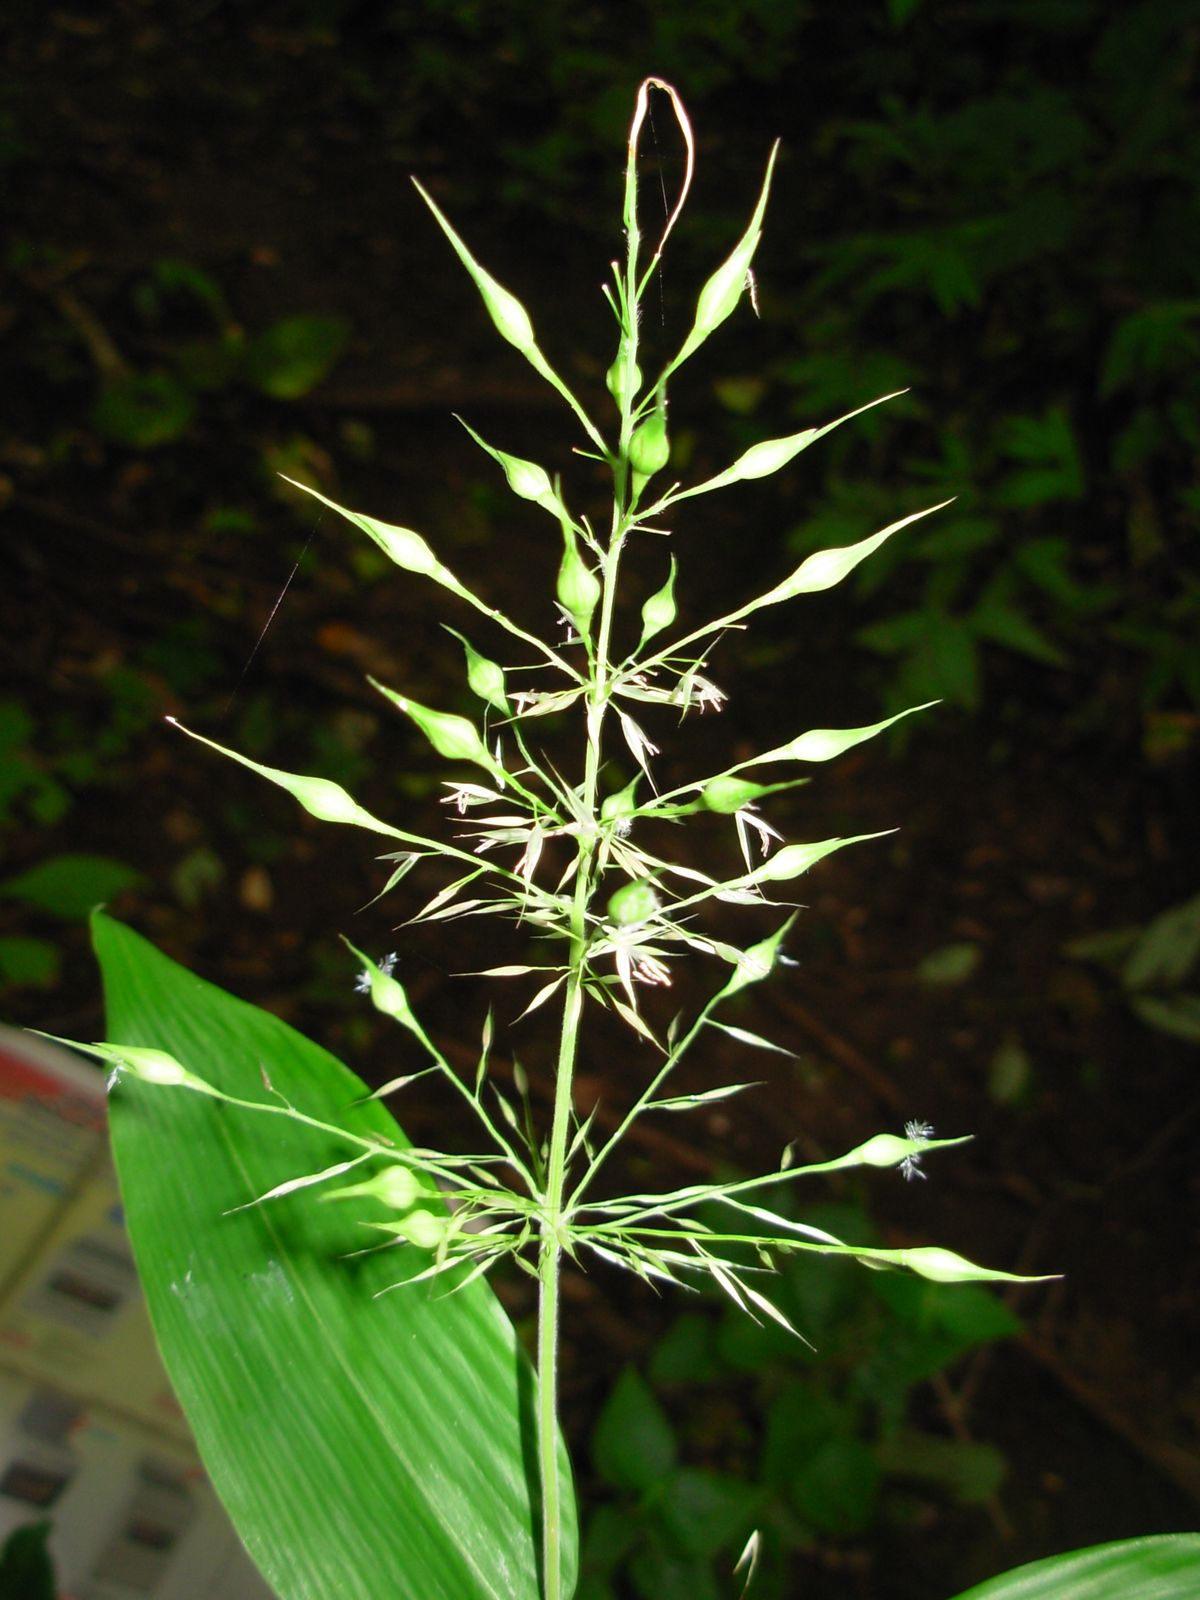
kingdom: Plantae
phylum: Tracheophyta
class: Liliopsida
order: Poales
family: Poaceae
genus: Olyra
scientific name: Olyra latifolia
